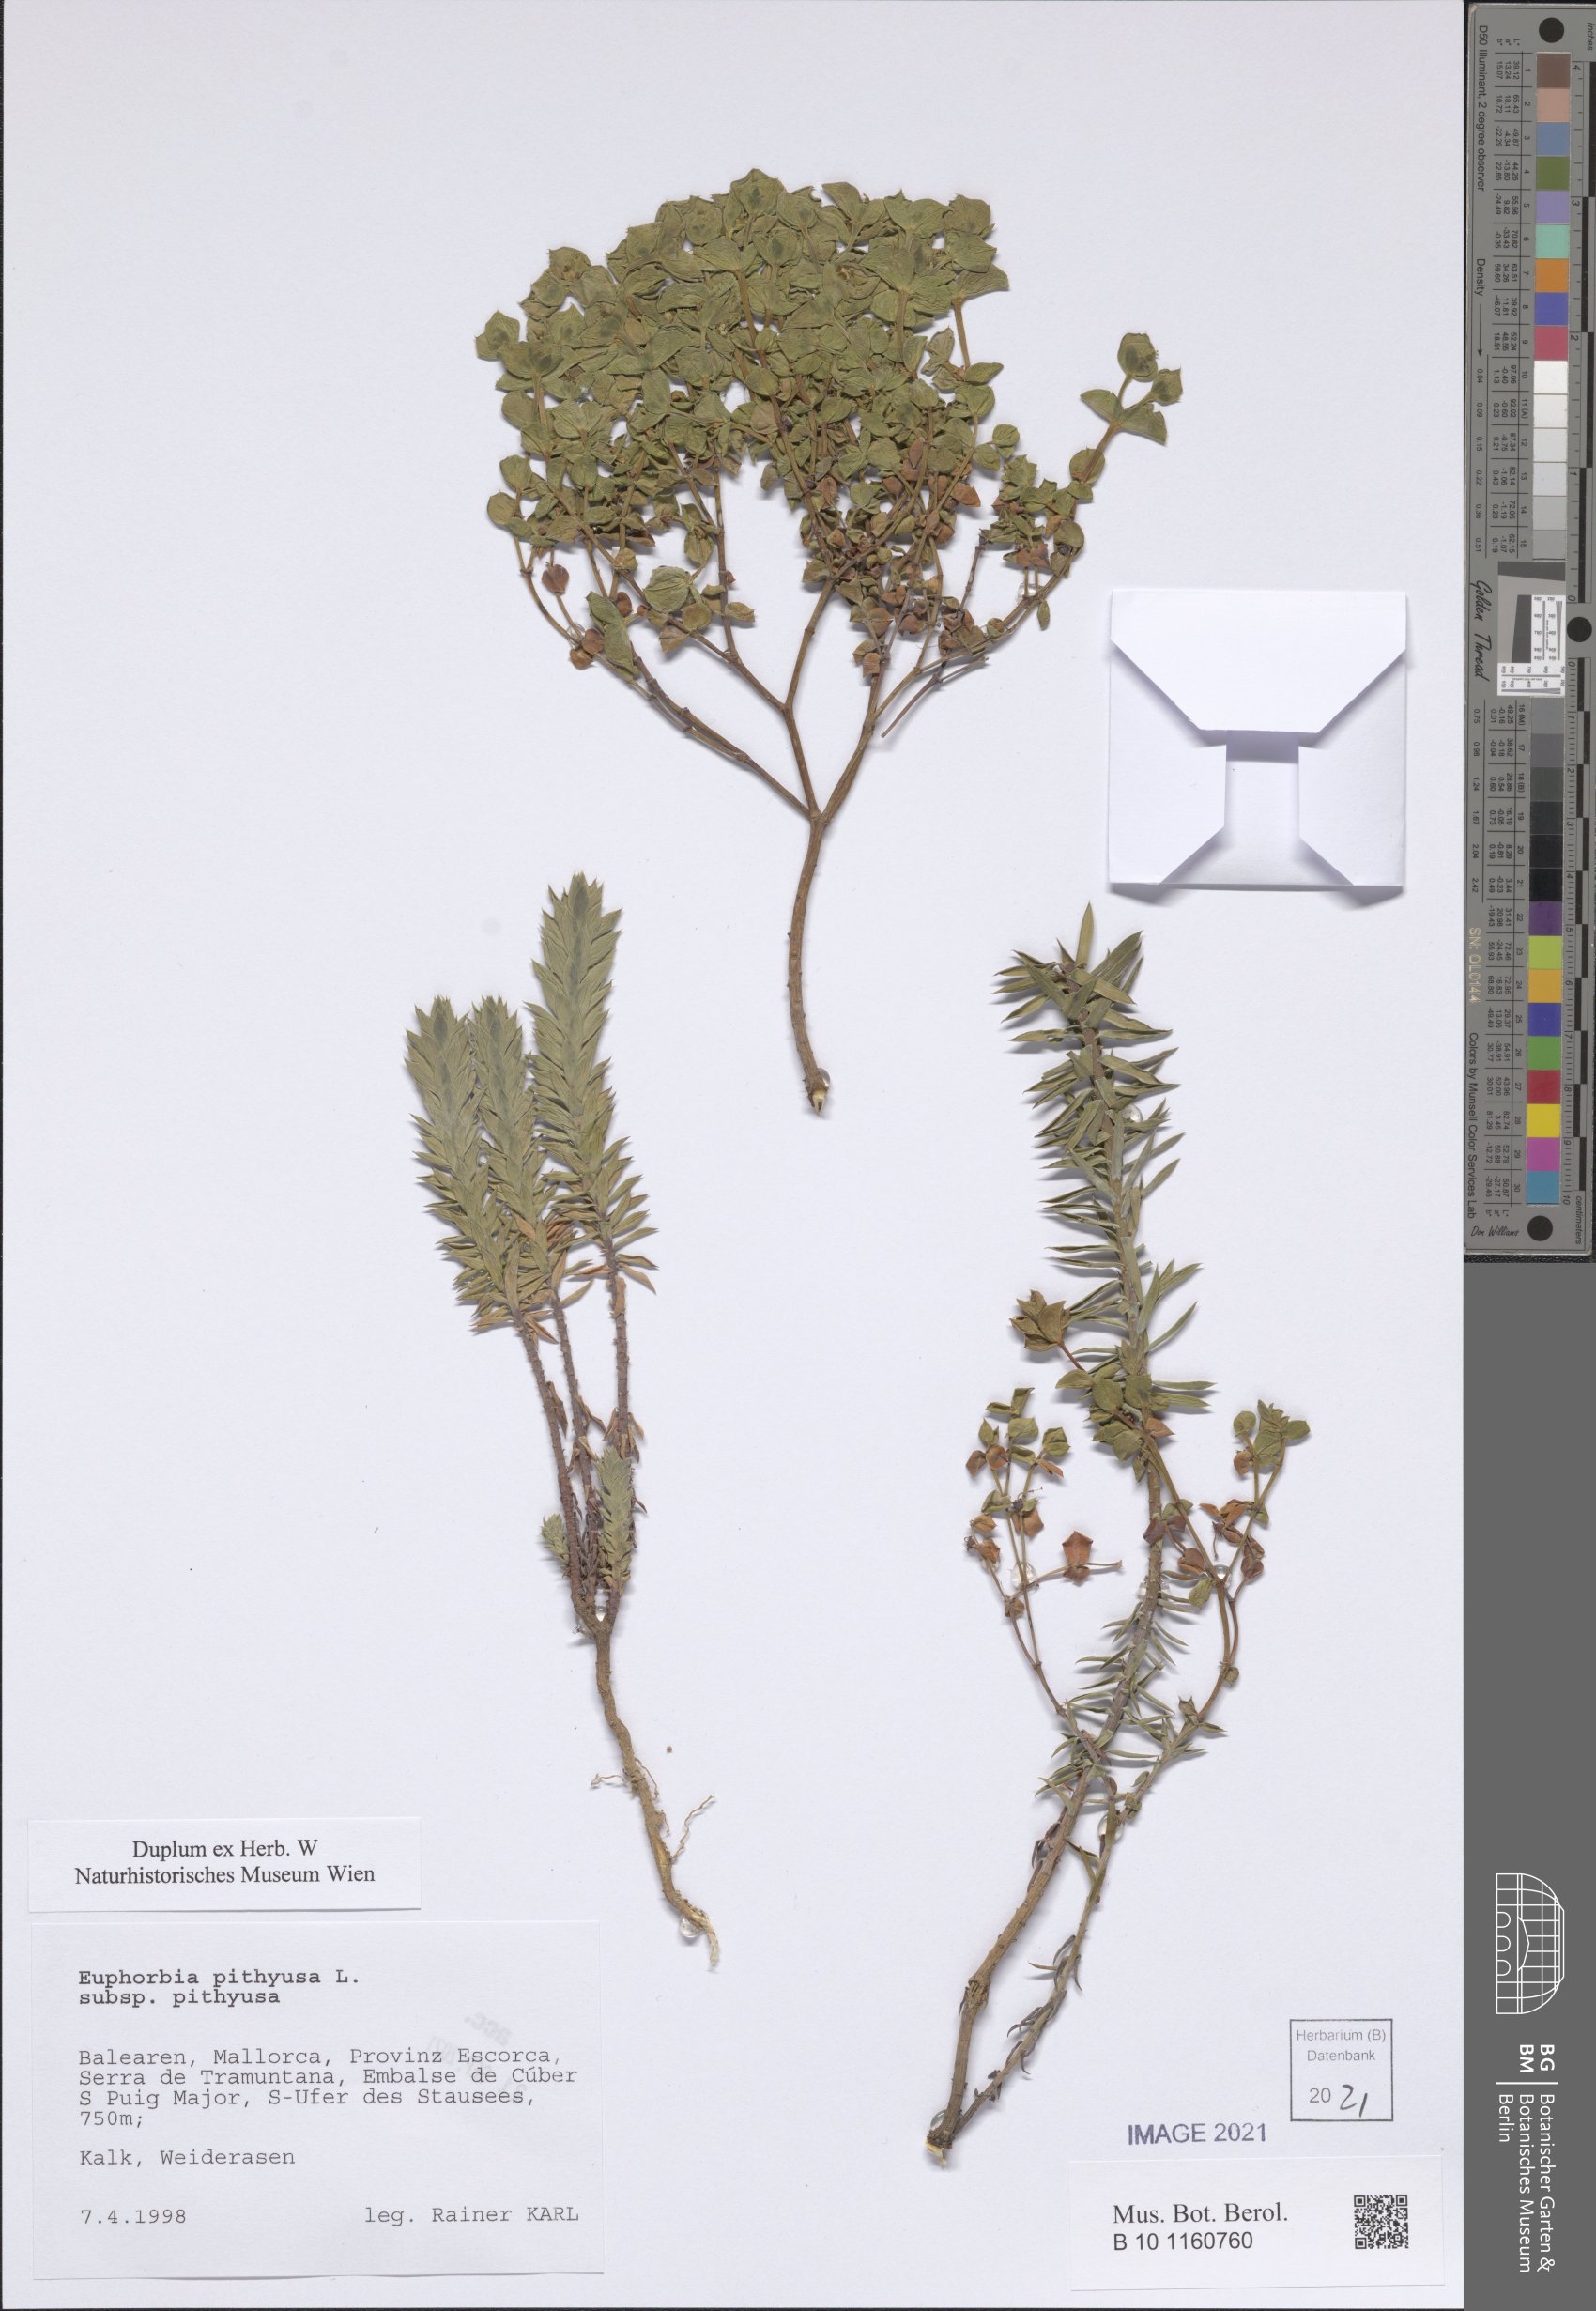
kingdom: Plantae
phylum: Tracheophyta
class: Magnoliopsida
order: Malpighiales
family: Euphorbiaceae
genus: Euphorbia
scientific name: Euphorbia pithyusa
